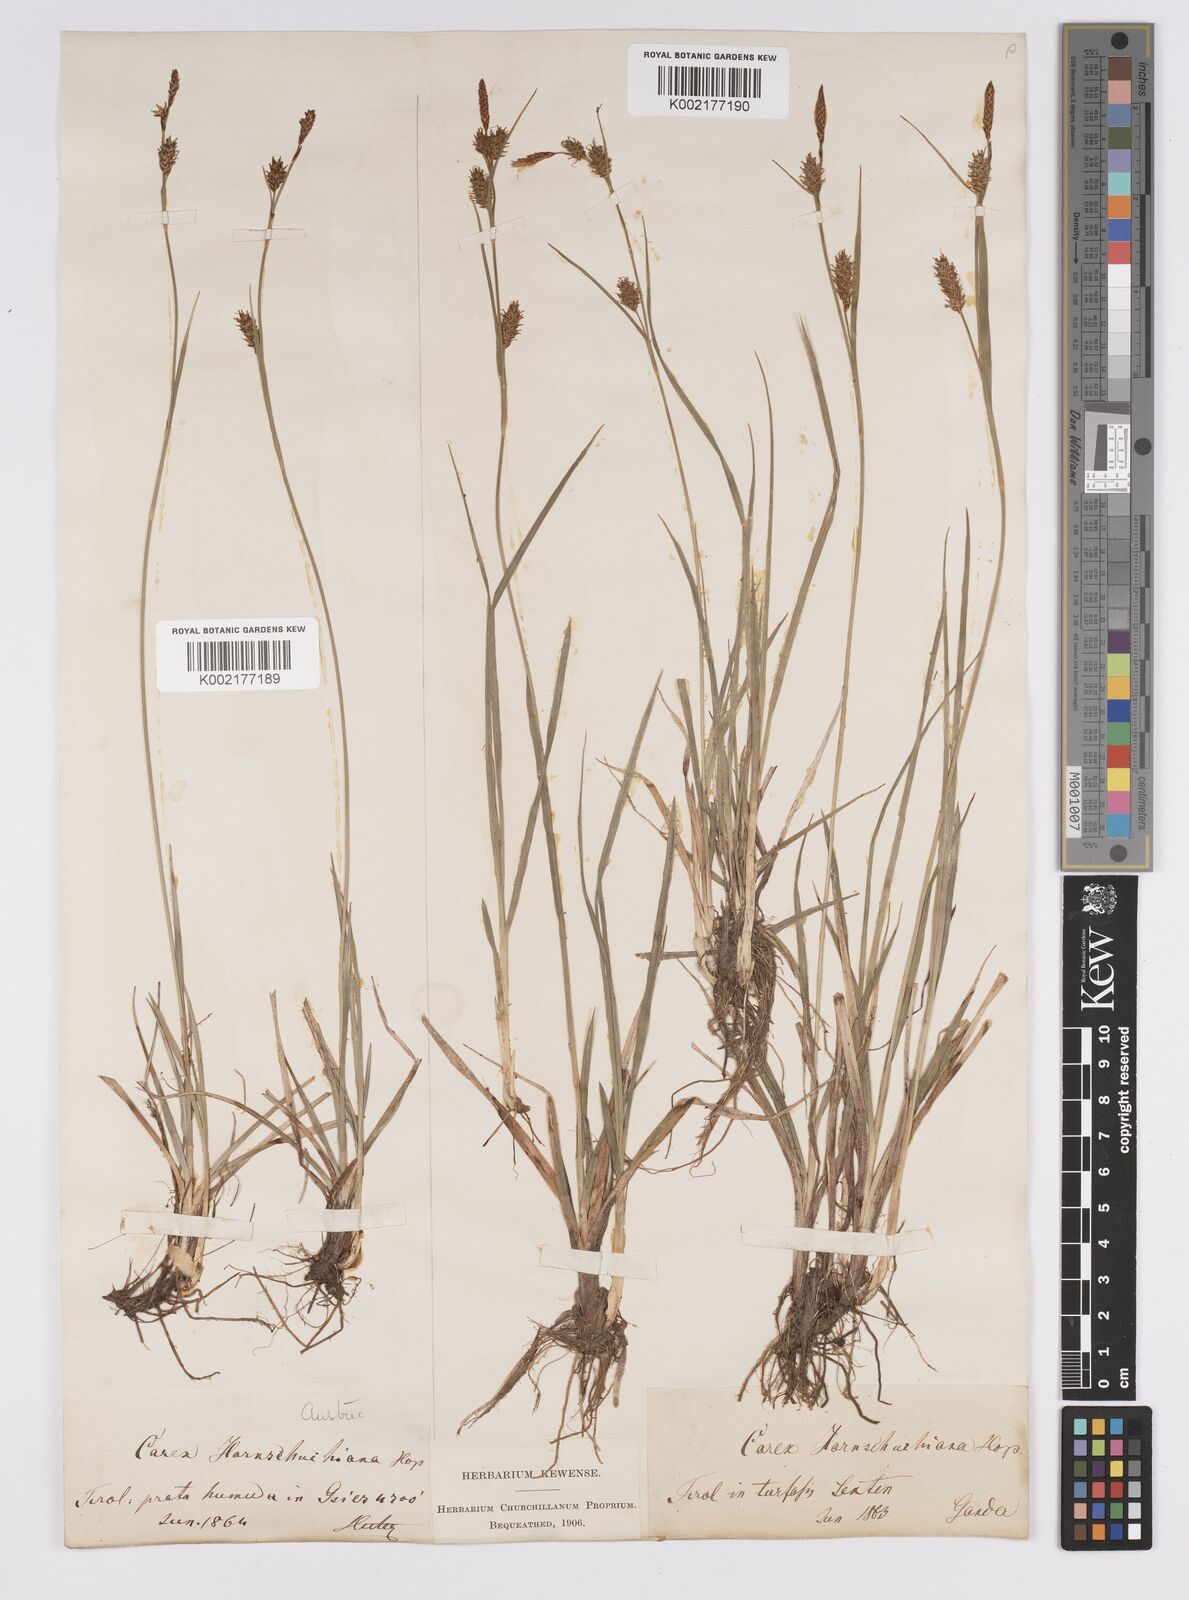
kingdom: Plantae
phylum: Tracheophyta
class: Liliopsida
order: Poales
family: Cyperaceae
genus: Carex
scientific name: Carex hostiana
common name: Tawny sedge
